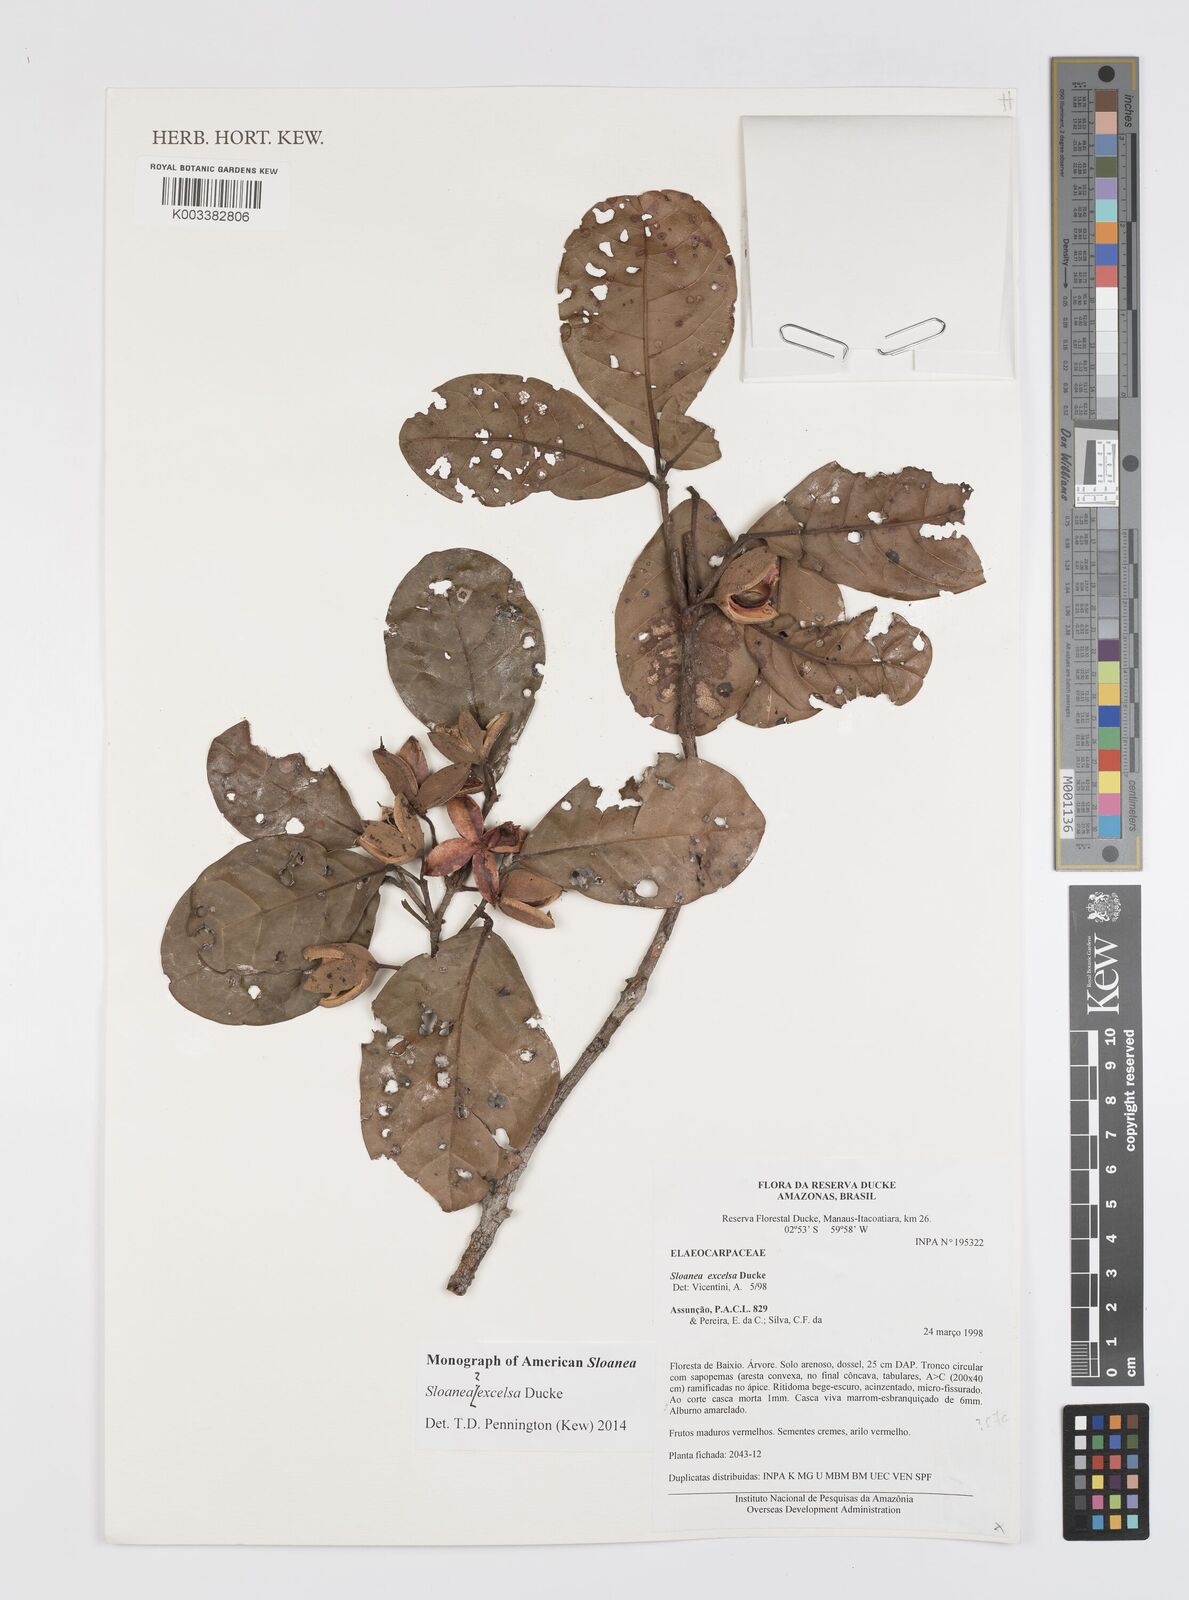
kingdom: Plantae
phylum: Tracheophyta
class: Magnoliopsida
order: Oxalidales
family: Elaeocarpaceae
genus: Sloanea
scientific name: Sloanea laurifolia
